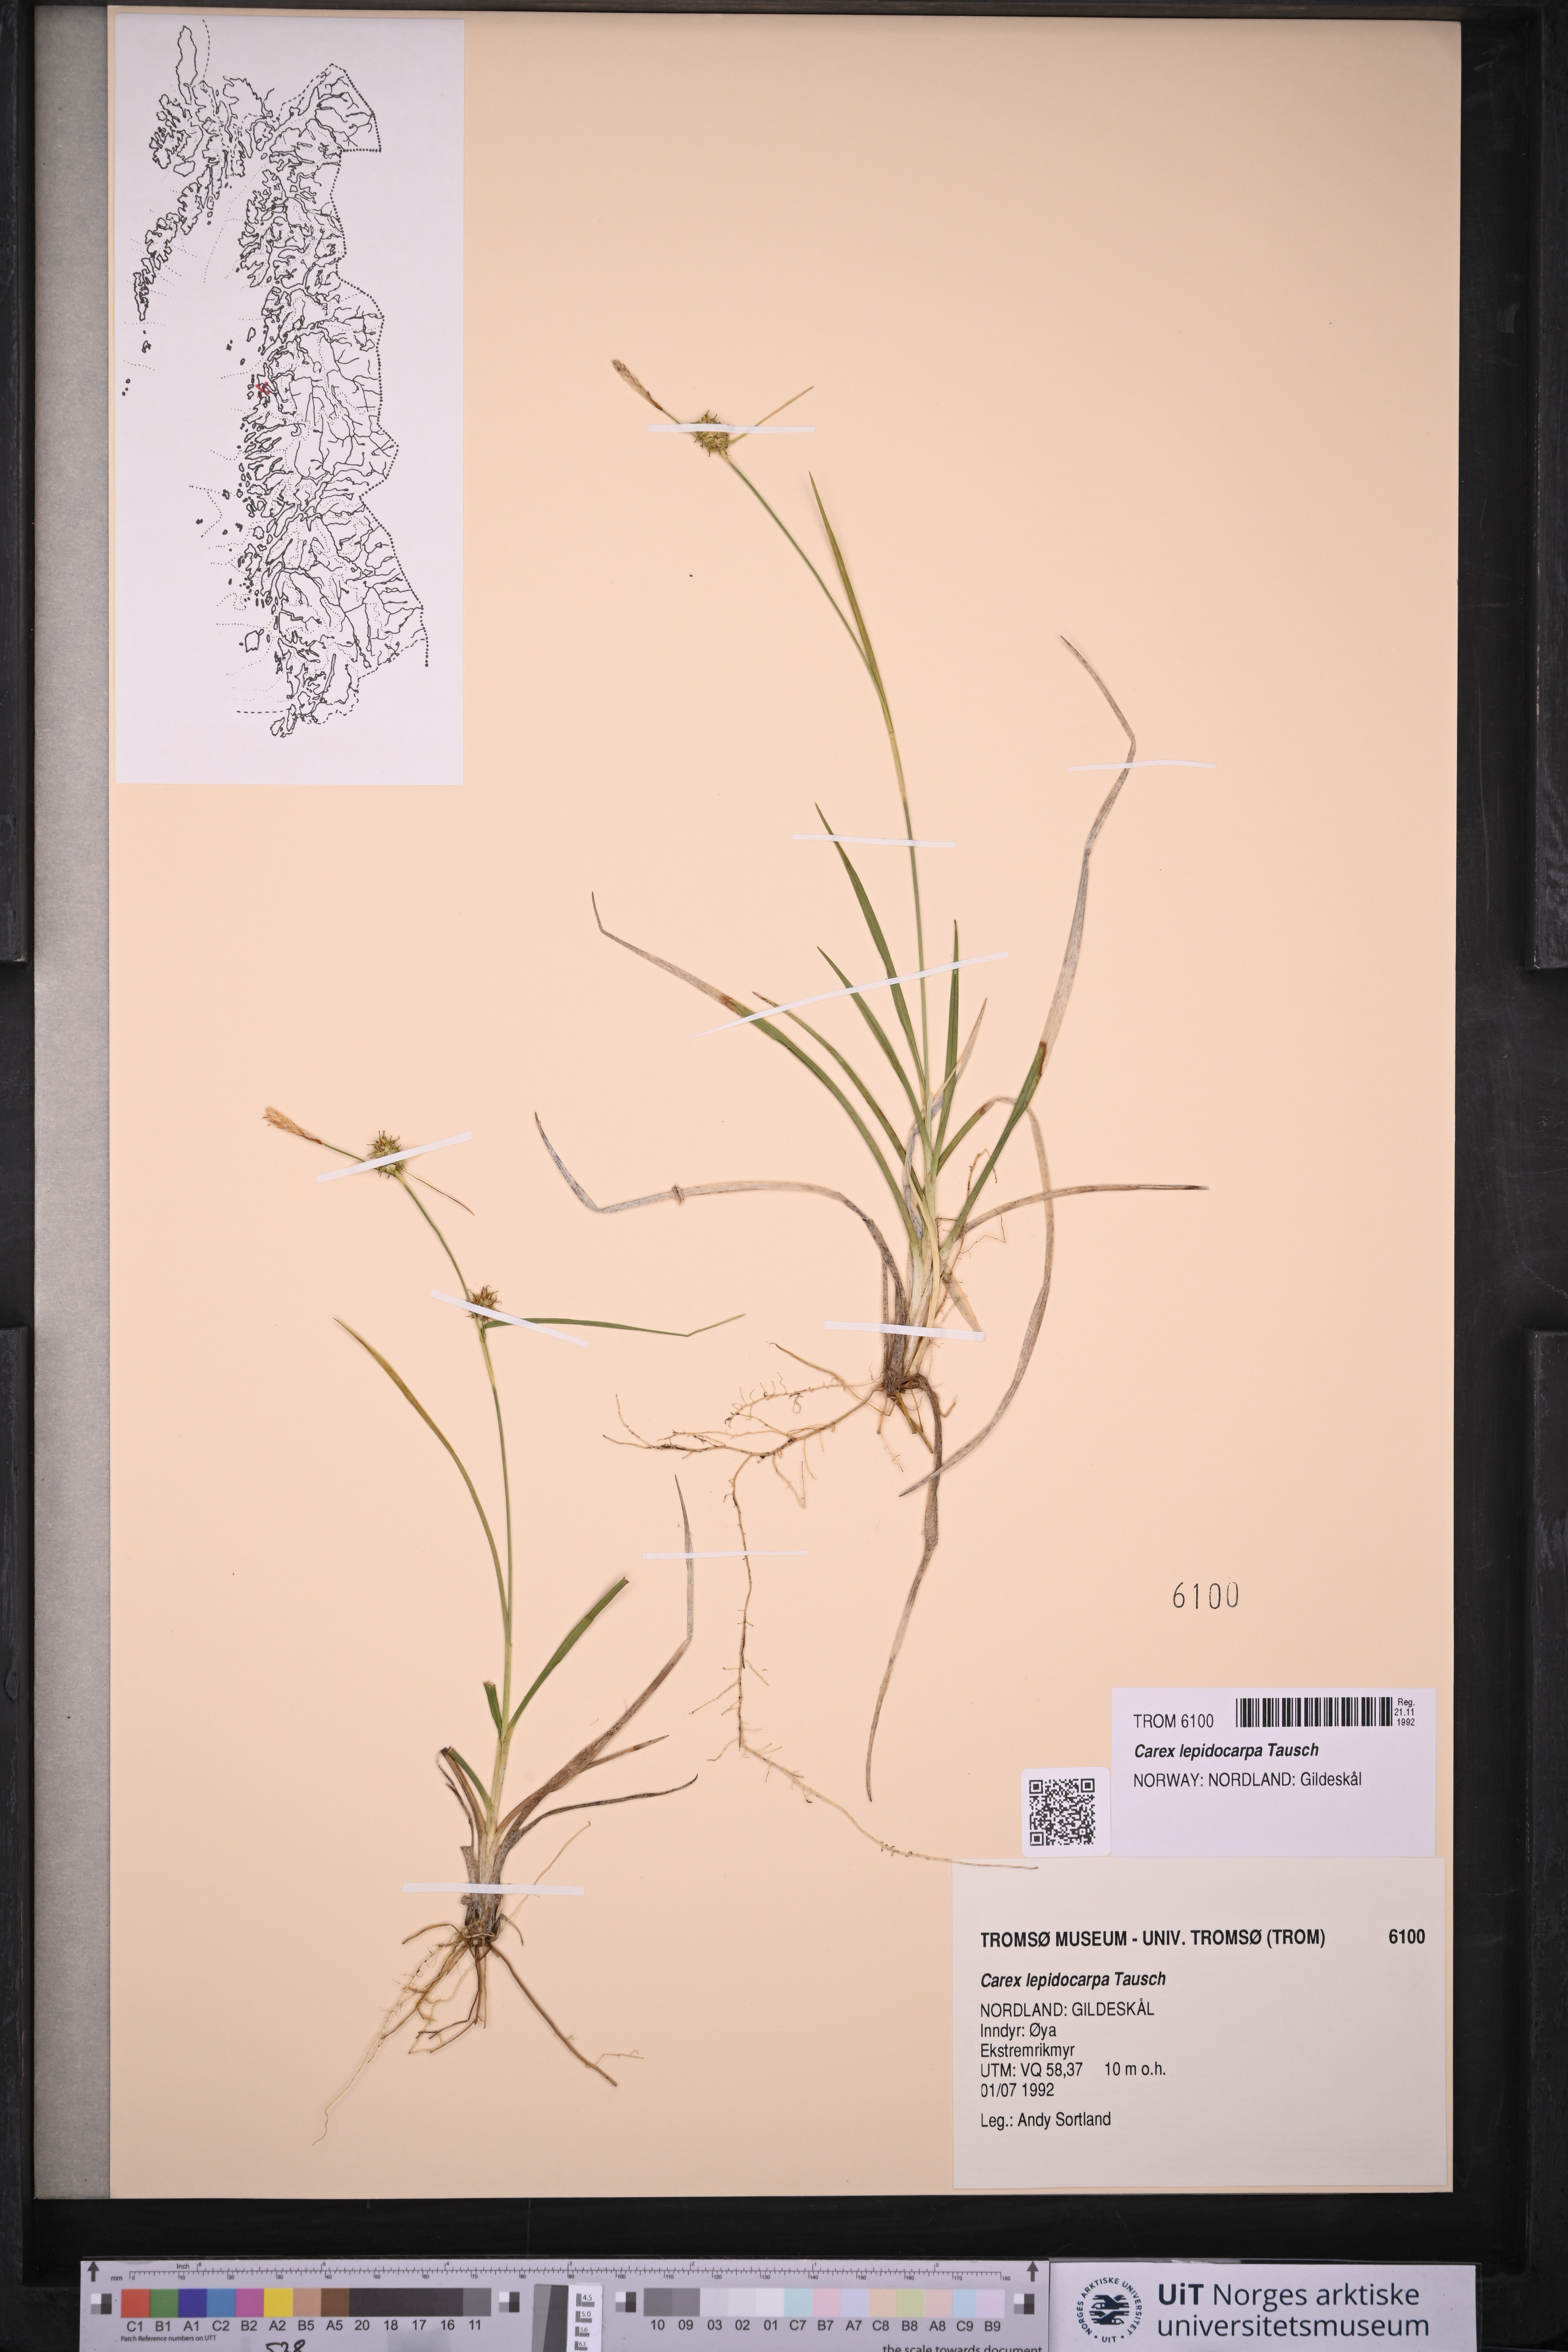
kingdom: Plantae
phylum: Tracheophyta
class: Liliopsida
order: Poales
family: Cyperaceae
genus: Carex
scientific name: Carex lepidocarpa
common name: Long-stalked yellow-sedge
